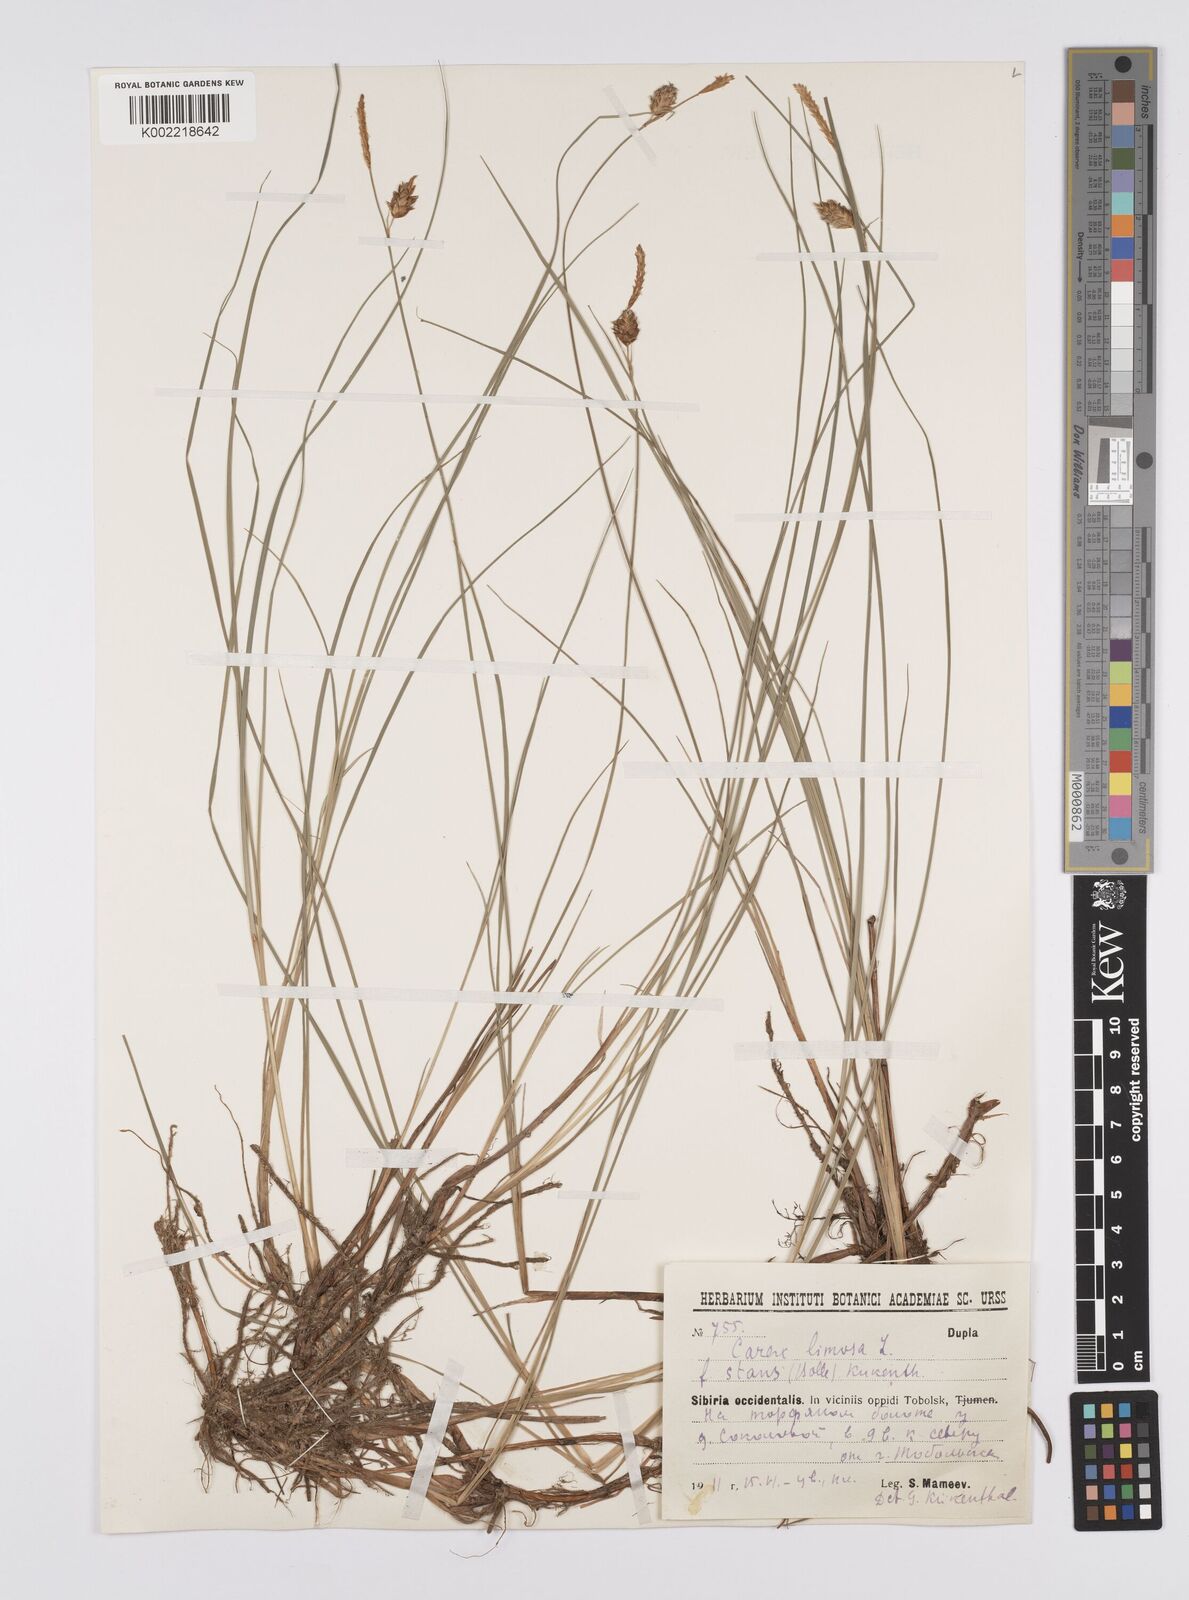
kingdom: Plantae
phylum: Tracheophyta
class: Liliopsida
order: Poales
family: Cyperaceae
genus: Carex
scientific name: Carex limosa
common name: Bog sedge
